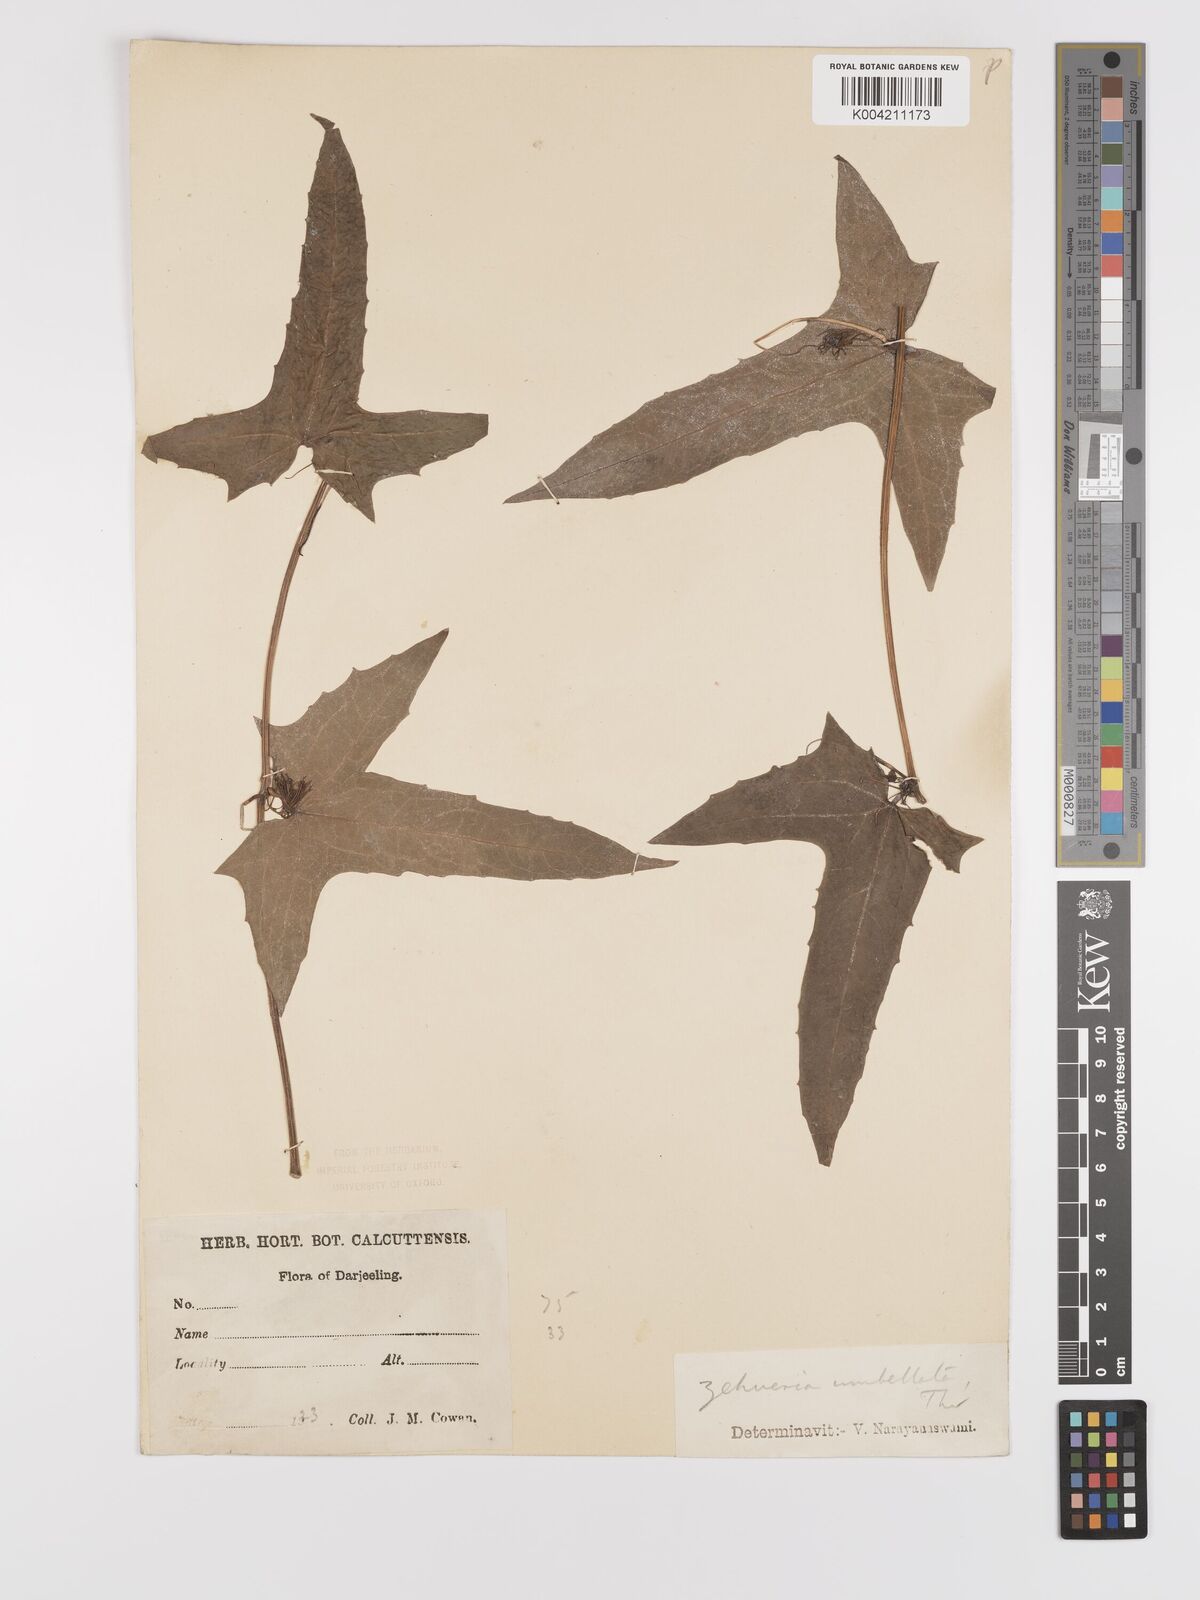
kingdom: Plantae
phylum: Tracheophyta
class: Magnoliopsida
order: Cucurbitales
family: Cucurbitaceae
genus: Solena
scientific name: Solena amplexicaulis
